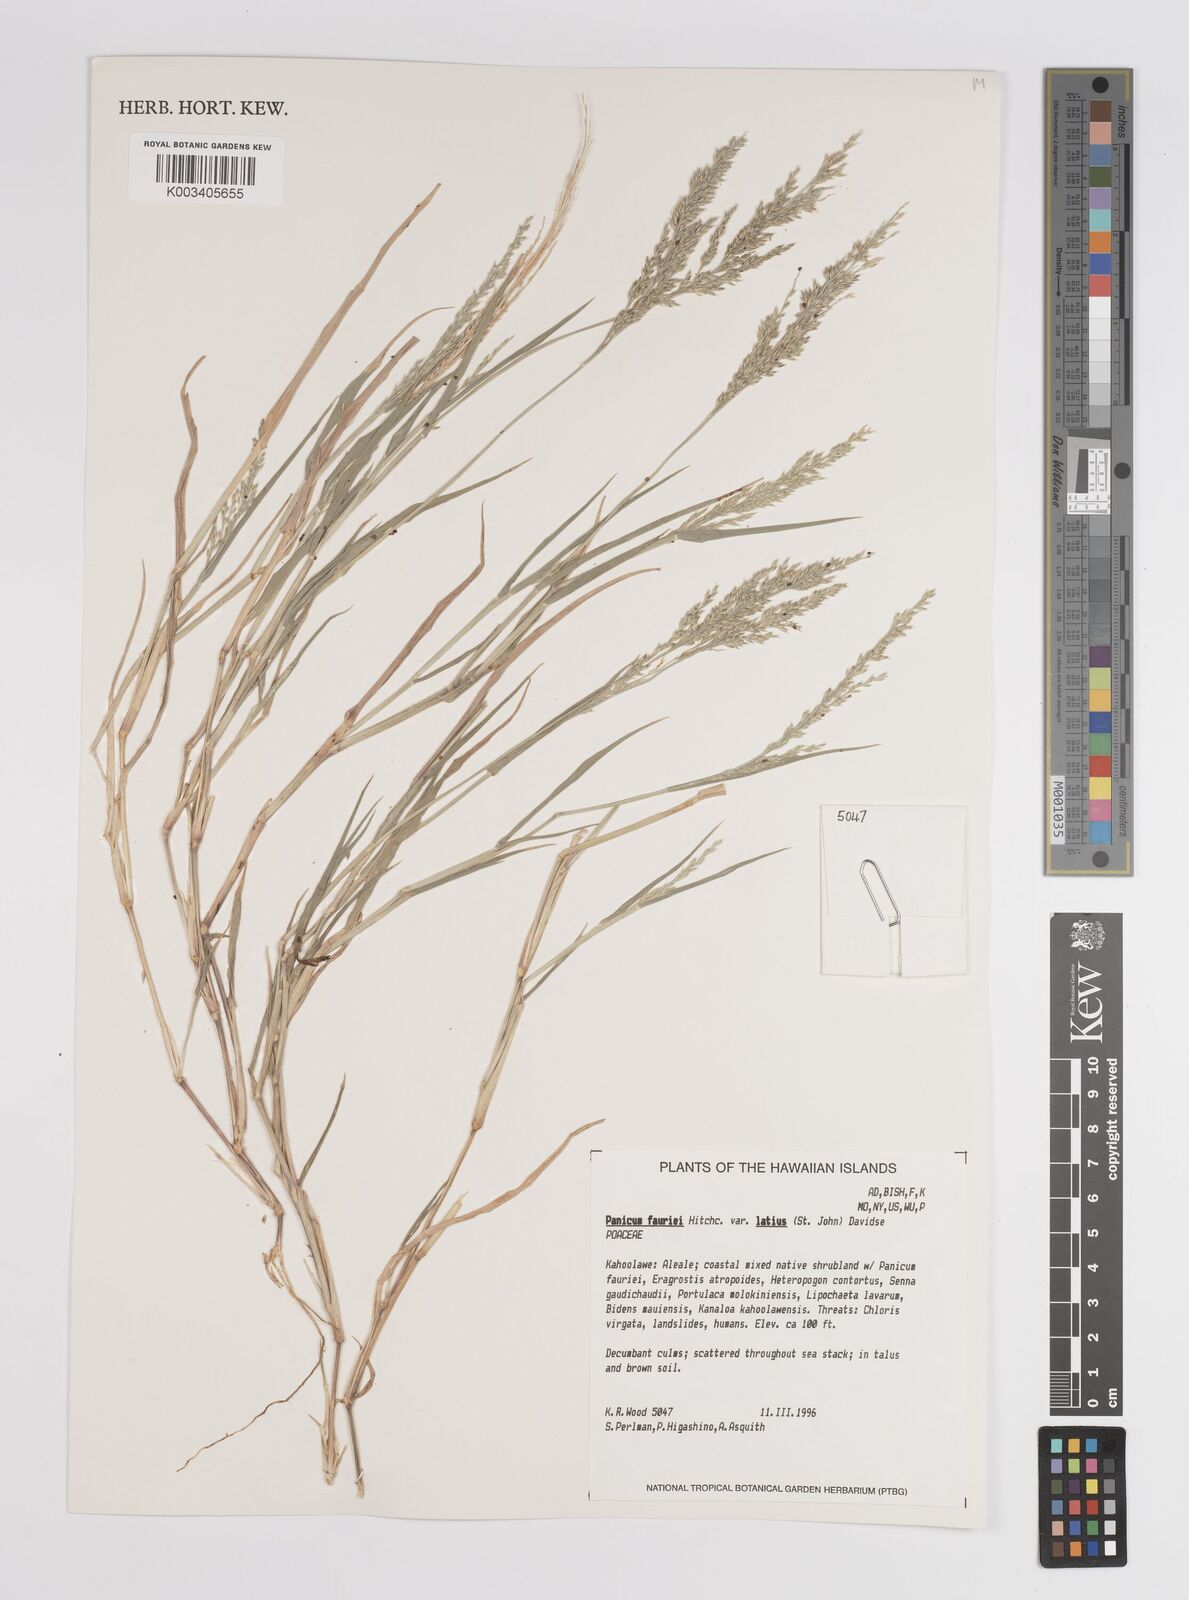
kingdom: Plantae
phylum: Tracheophyta
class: Liliopsida
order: Poales
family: Poaceae
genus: Panicum
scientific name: Panicum fauriei
